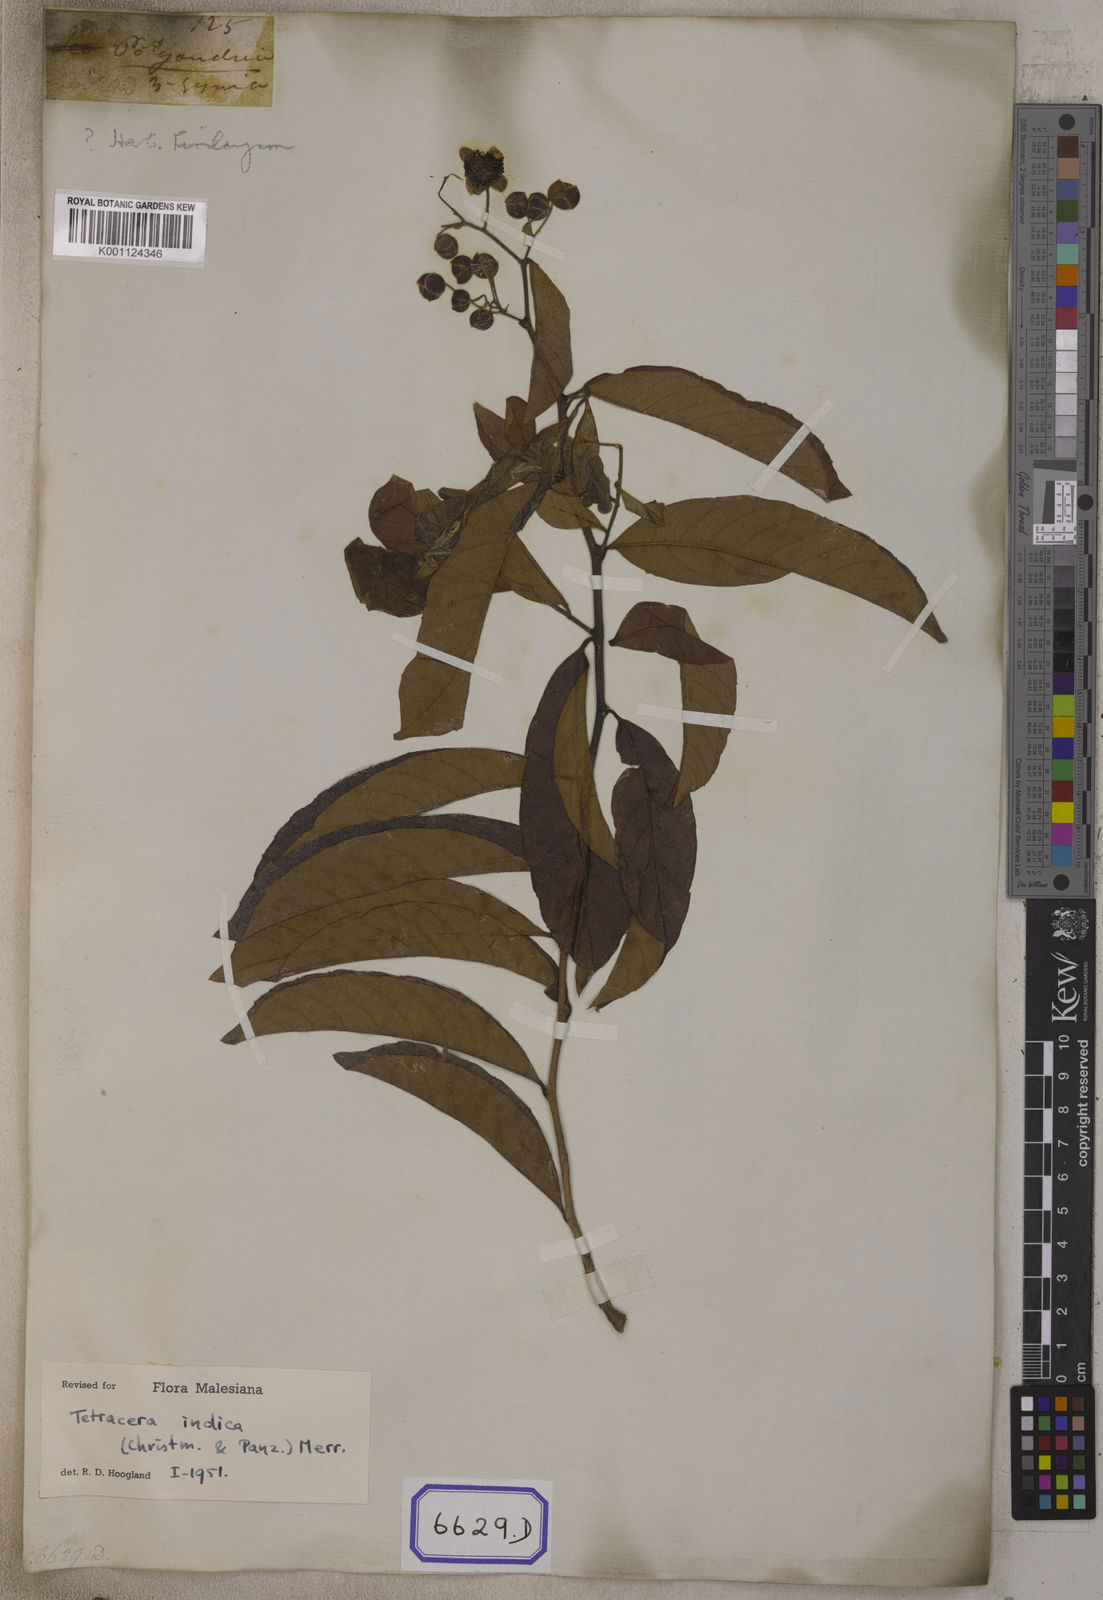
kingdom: Plantae
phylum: Tracheophyta
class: Magnoliopsida
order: Dilleniales
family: Dilleniaceae
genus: Tetracera
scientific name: Tetracera indica
